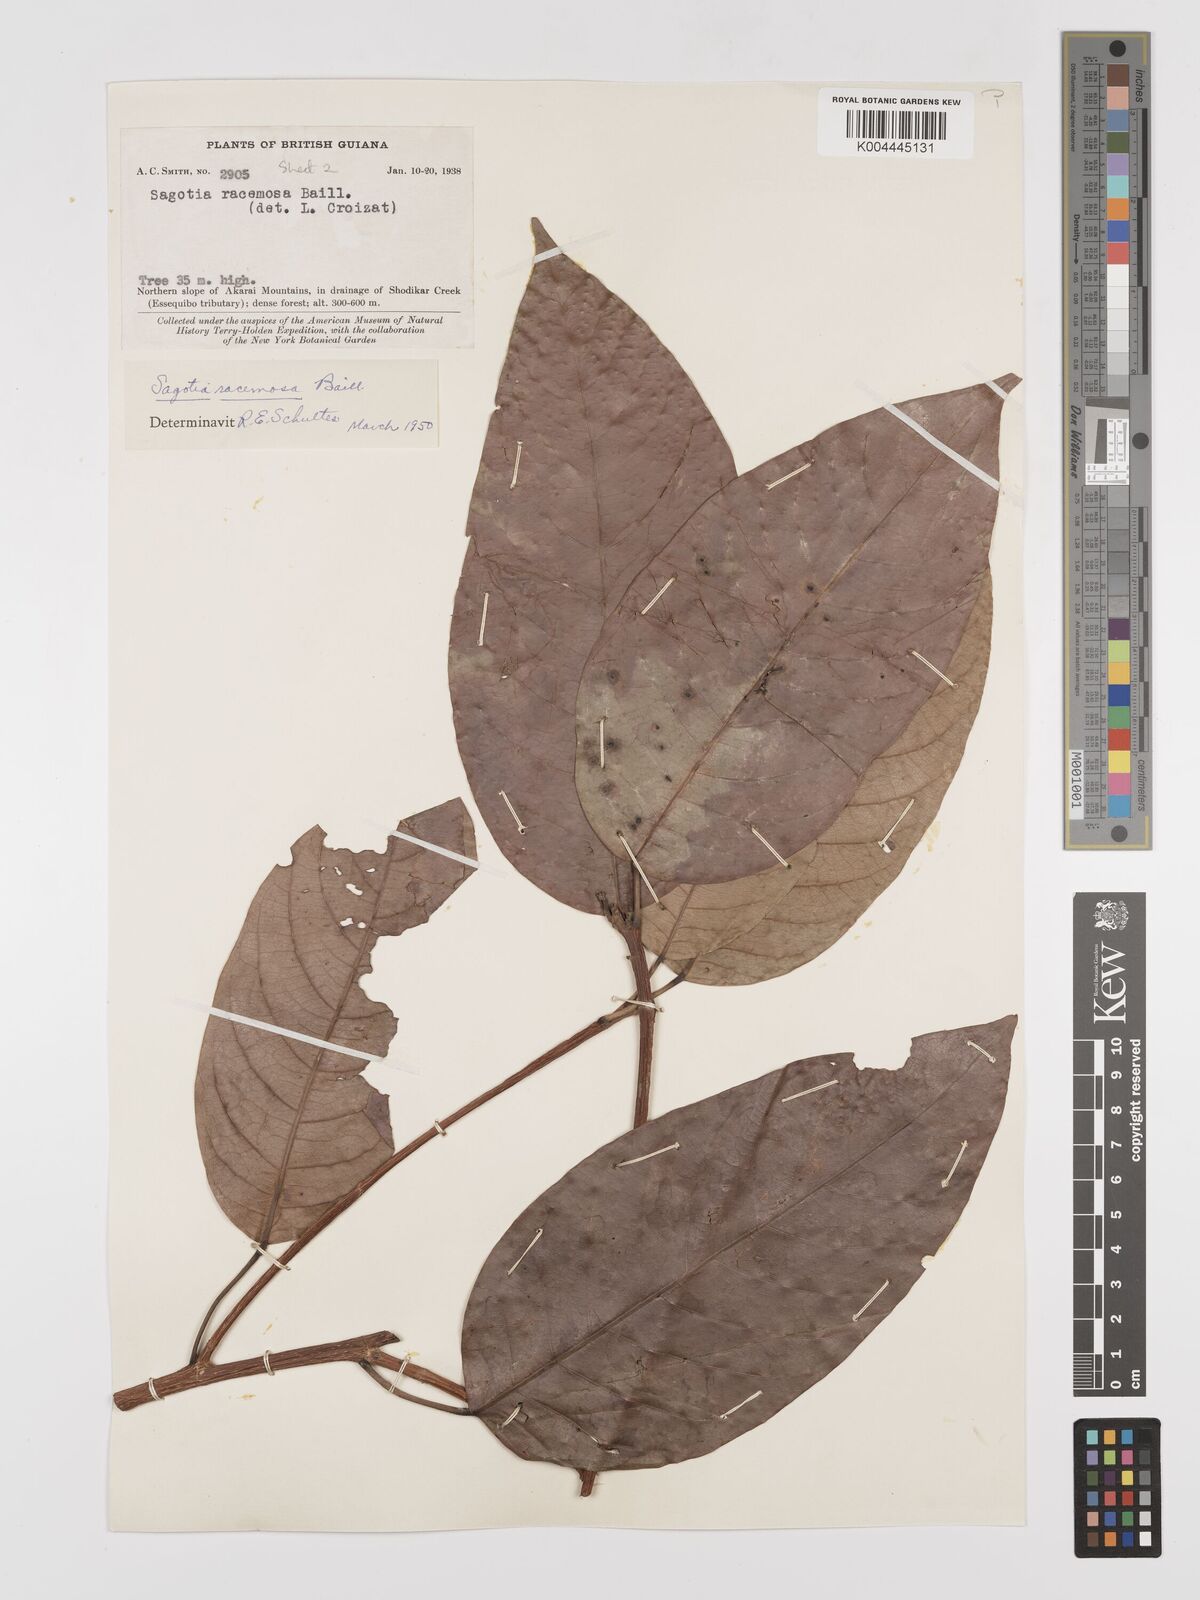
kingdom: Plantae
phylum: Tracheophyta
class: Magnoliopsida
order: Malpighiales
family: Euphorbiaceae
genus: Sagotia
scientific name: Sagotia racemosa
